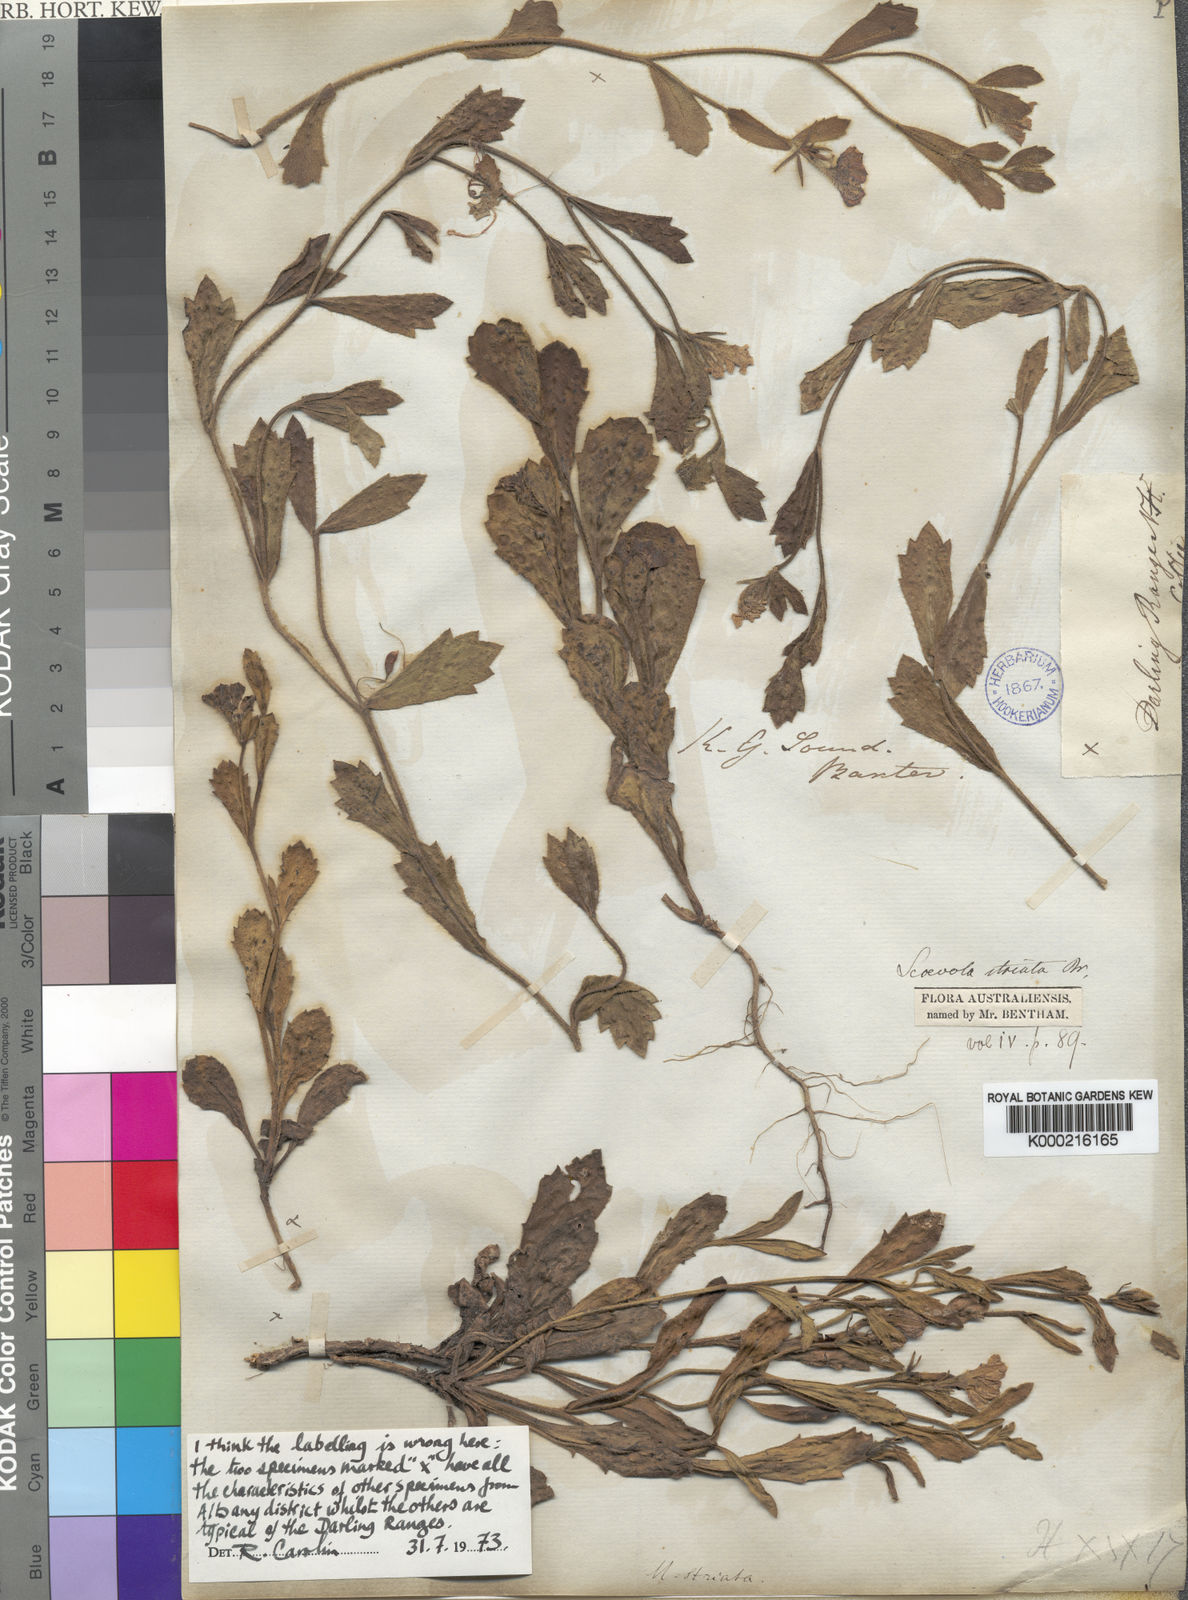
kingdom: Plantae
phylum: Tracheophyta
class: Magnoliopsida
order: Asterales
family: Goodeniaceae
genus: Scaevola
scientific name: Scaevola striata
